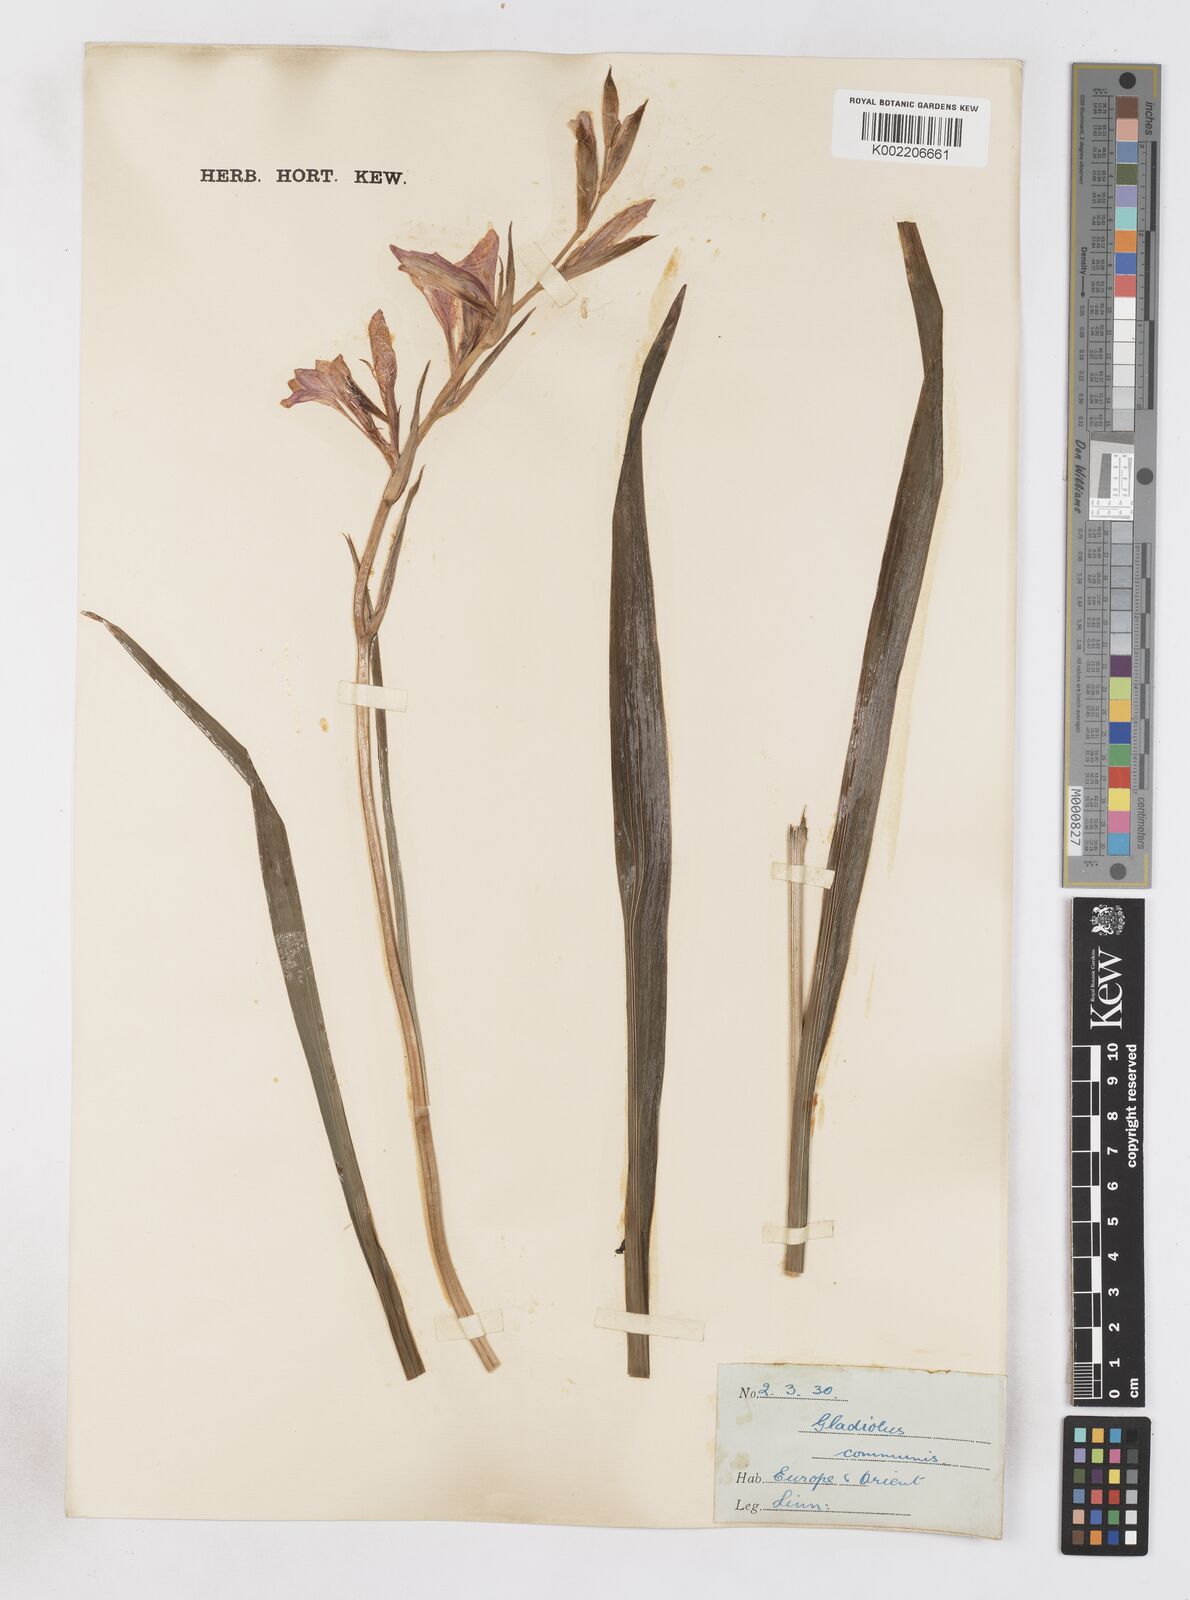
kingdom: Plantae
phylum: Tracheophyta
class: Liliopsida
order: Asparagales
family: Iridaceae
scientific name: Iridaceae
